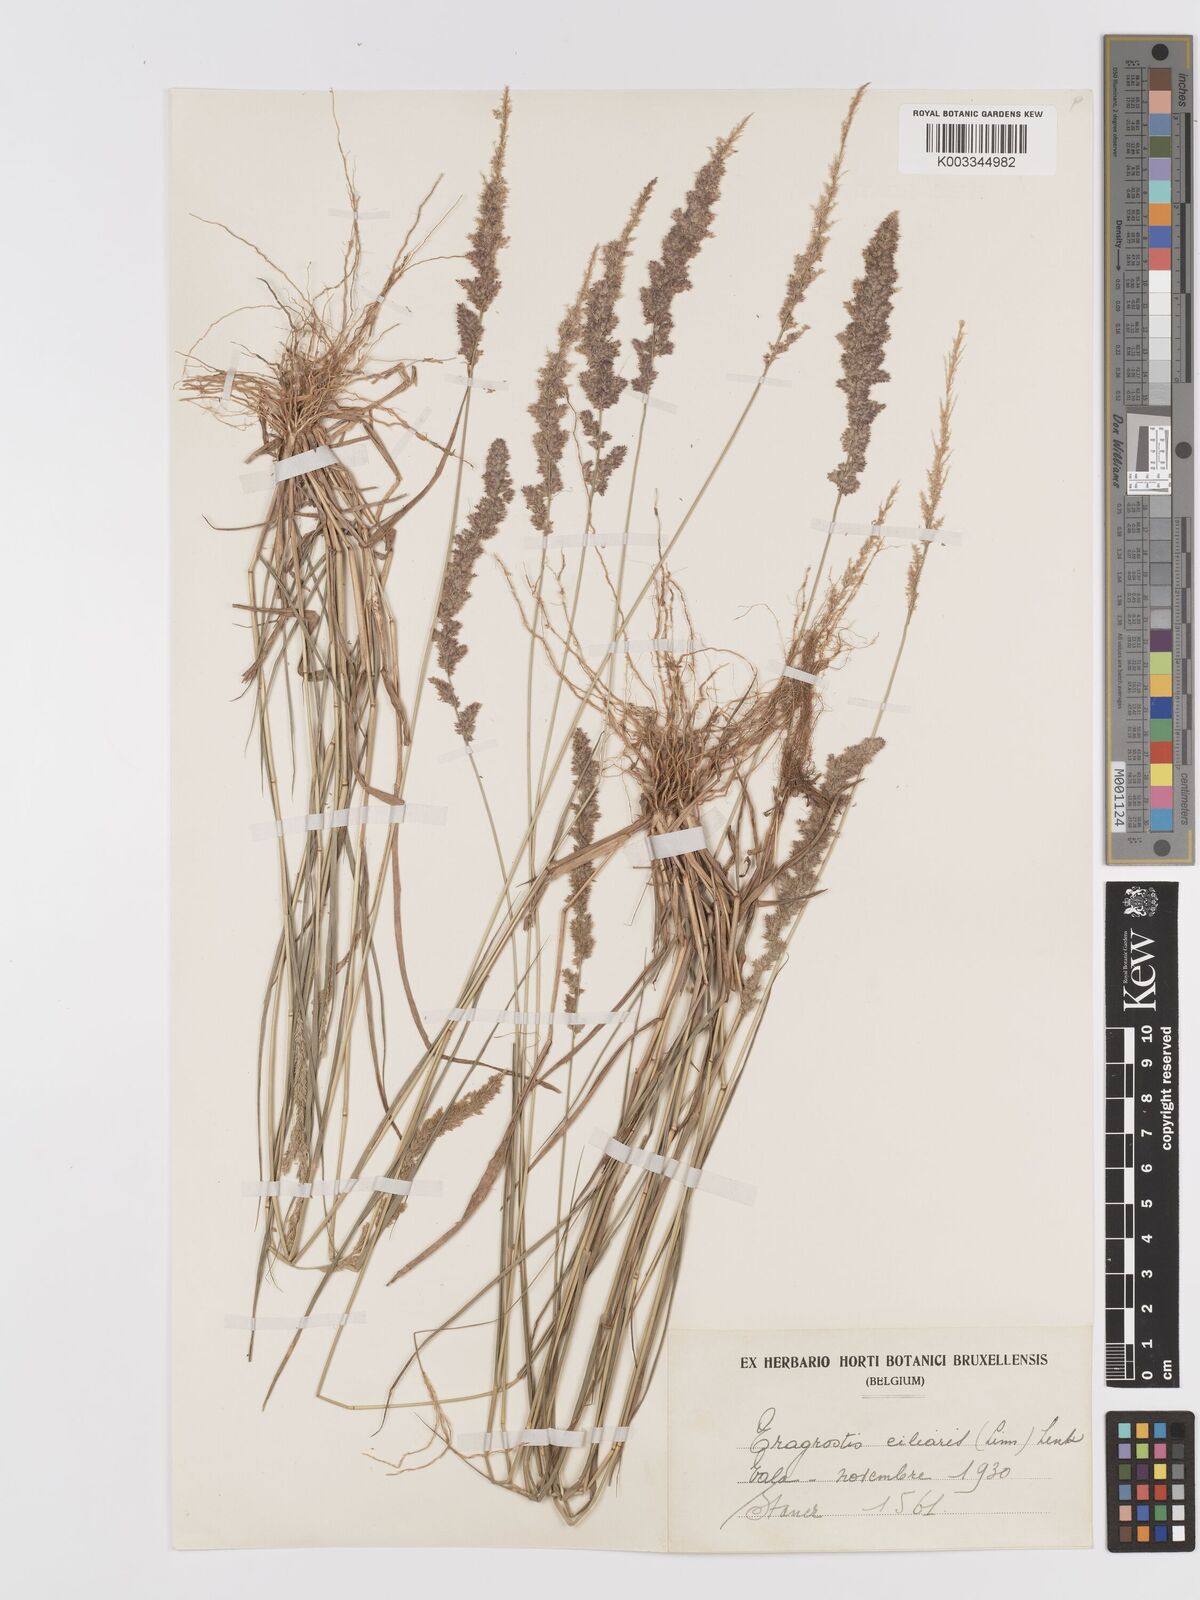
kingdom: Plantae
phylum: Tracheophyta
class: Liliopsida
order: Poales
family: Poaceae
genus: Eragrostis
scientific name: Eragrostis ciliaris
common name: Gophertail lovegrass
